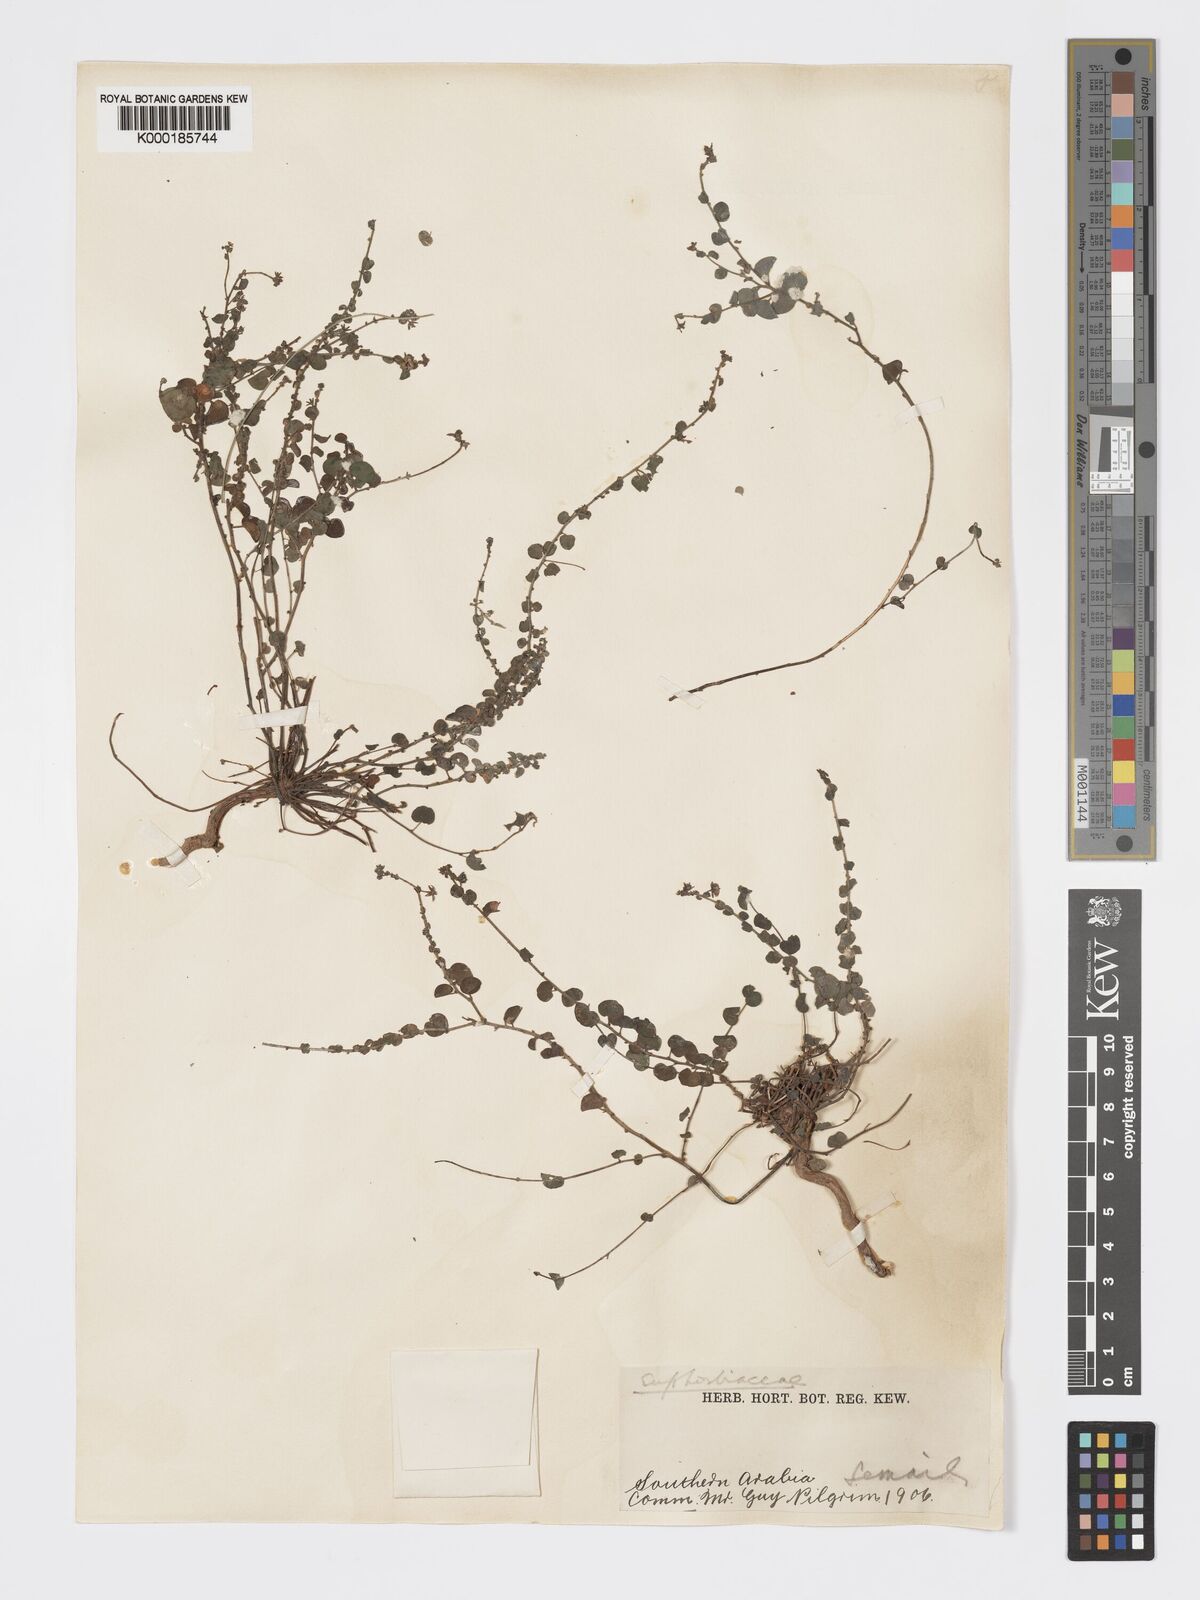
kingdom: Plantae
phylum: Tracheophyta
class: Magnoliopsida
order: Malpighiales
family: Phyllanthaceae
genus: Andrachne
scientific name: Andrachne aspera
